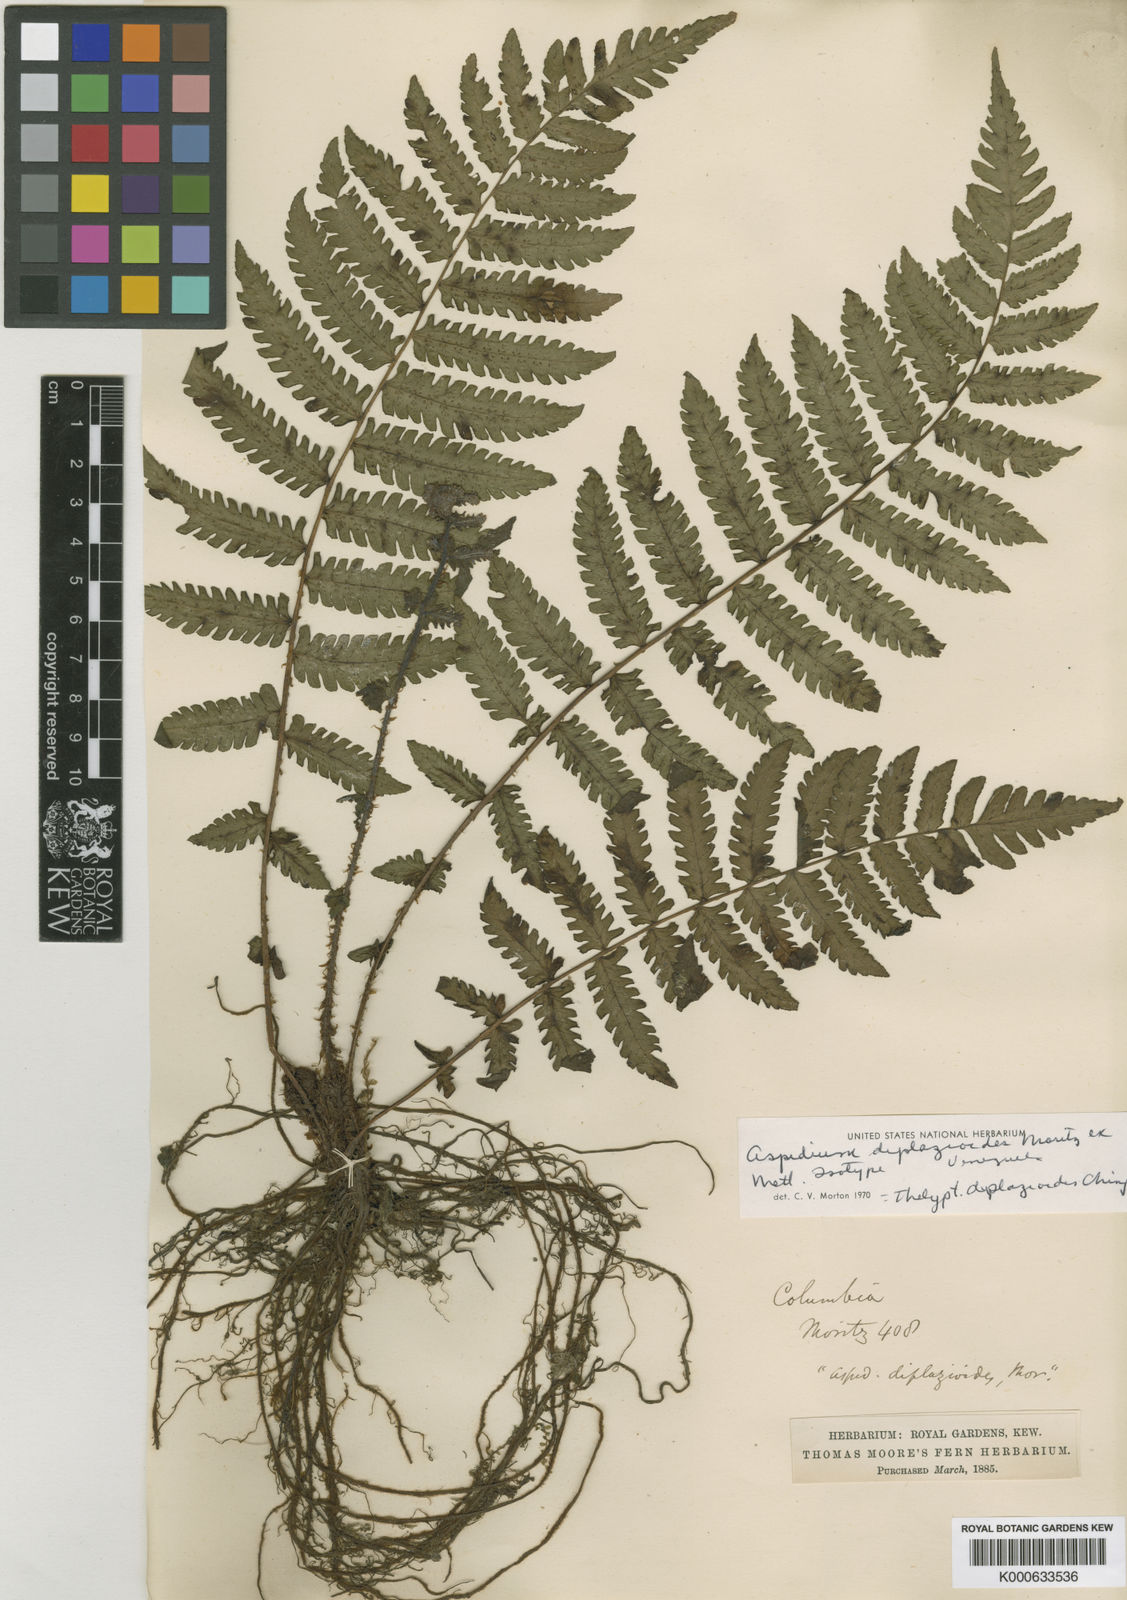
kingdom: Plantae
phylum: Tracheophyta
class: Polypodiopsida
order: Polypodiales
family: Thelypteridaceae
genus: Amauropelta
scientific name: Amauropelta diplazioides
